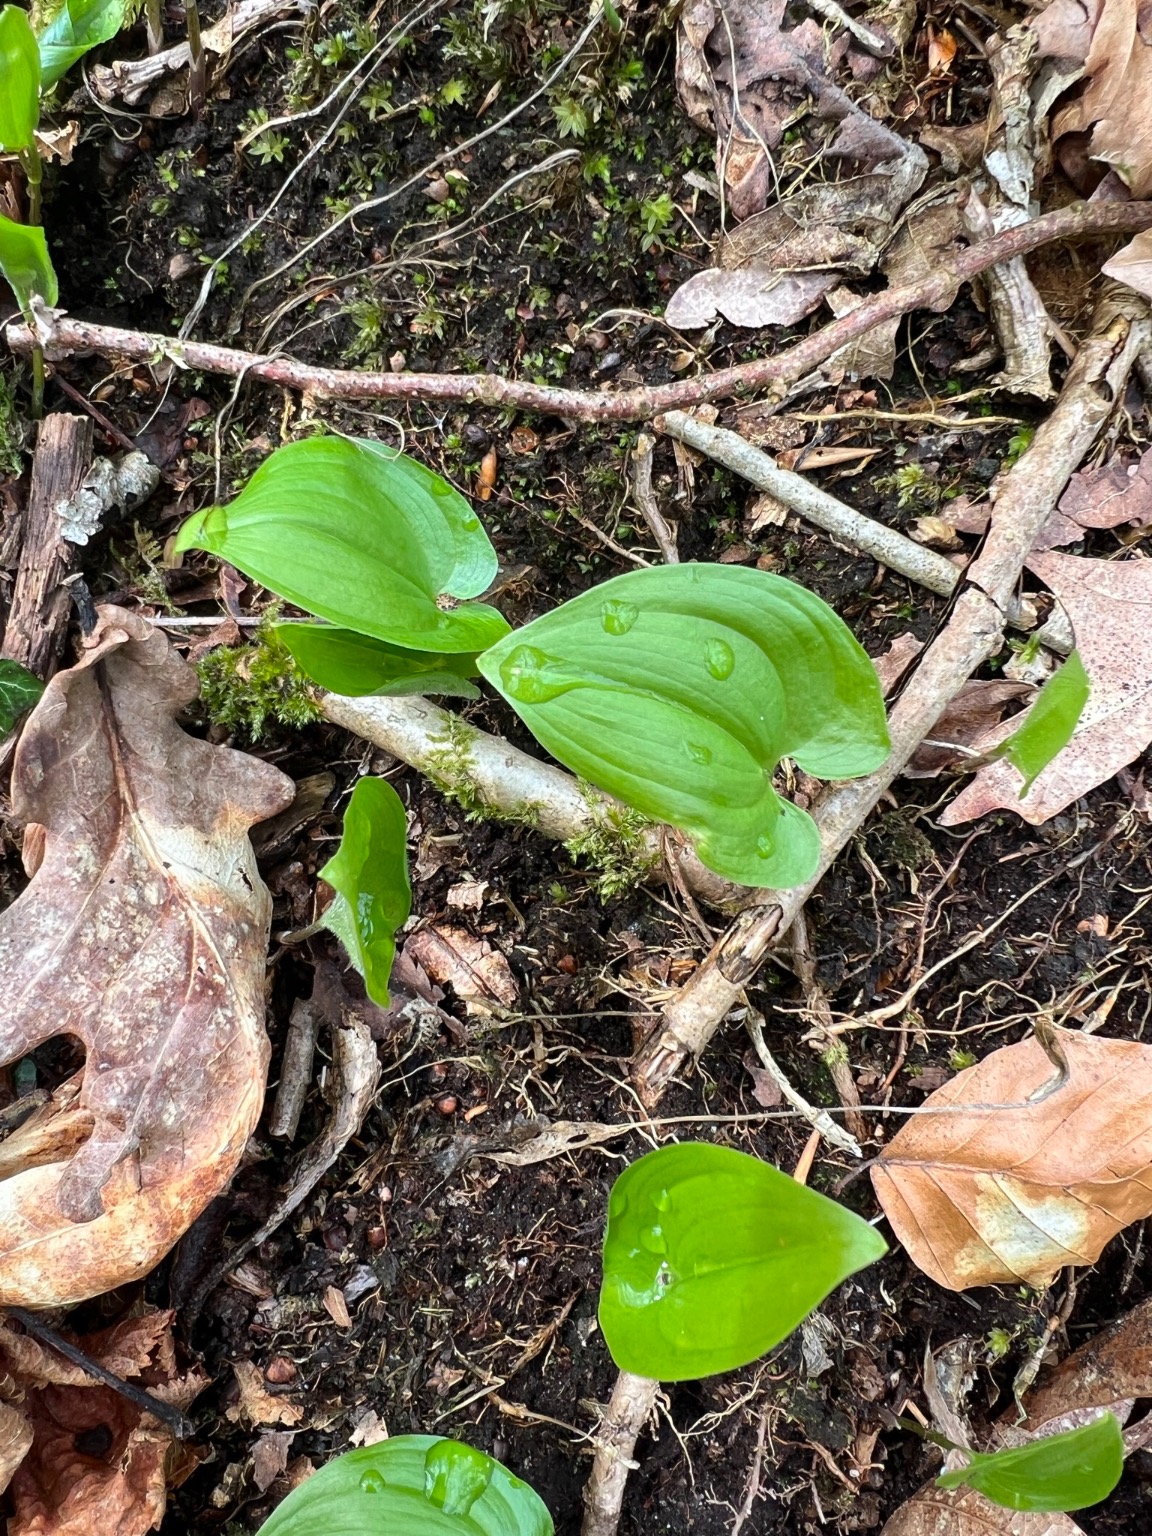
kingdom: Plantae
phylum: Tracheophyta
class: Liliopsida
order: Asparagales
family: Asparagaceae
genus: Maianthemum
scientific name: Maianthemum bifolium
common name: Majblomst
